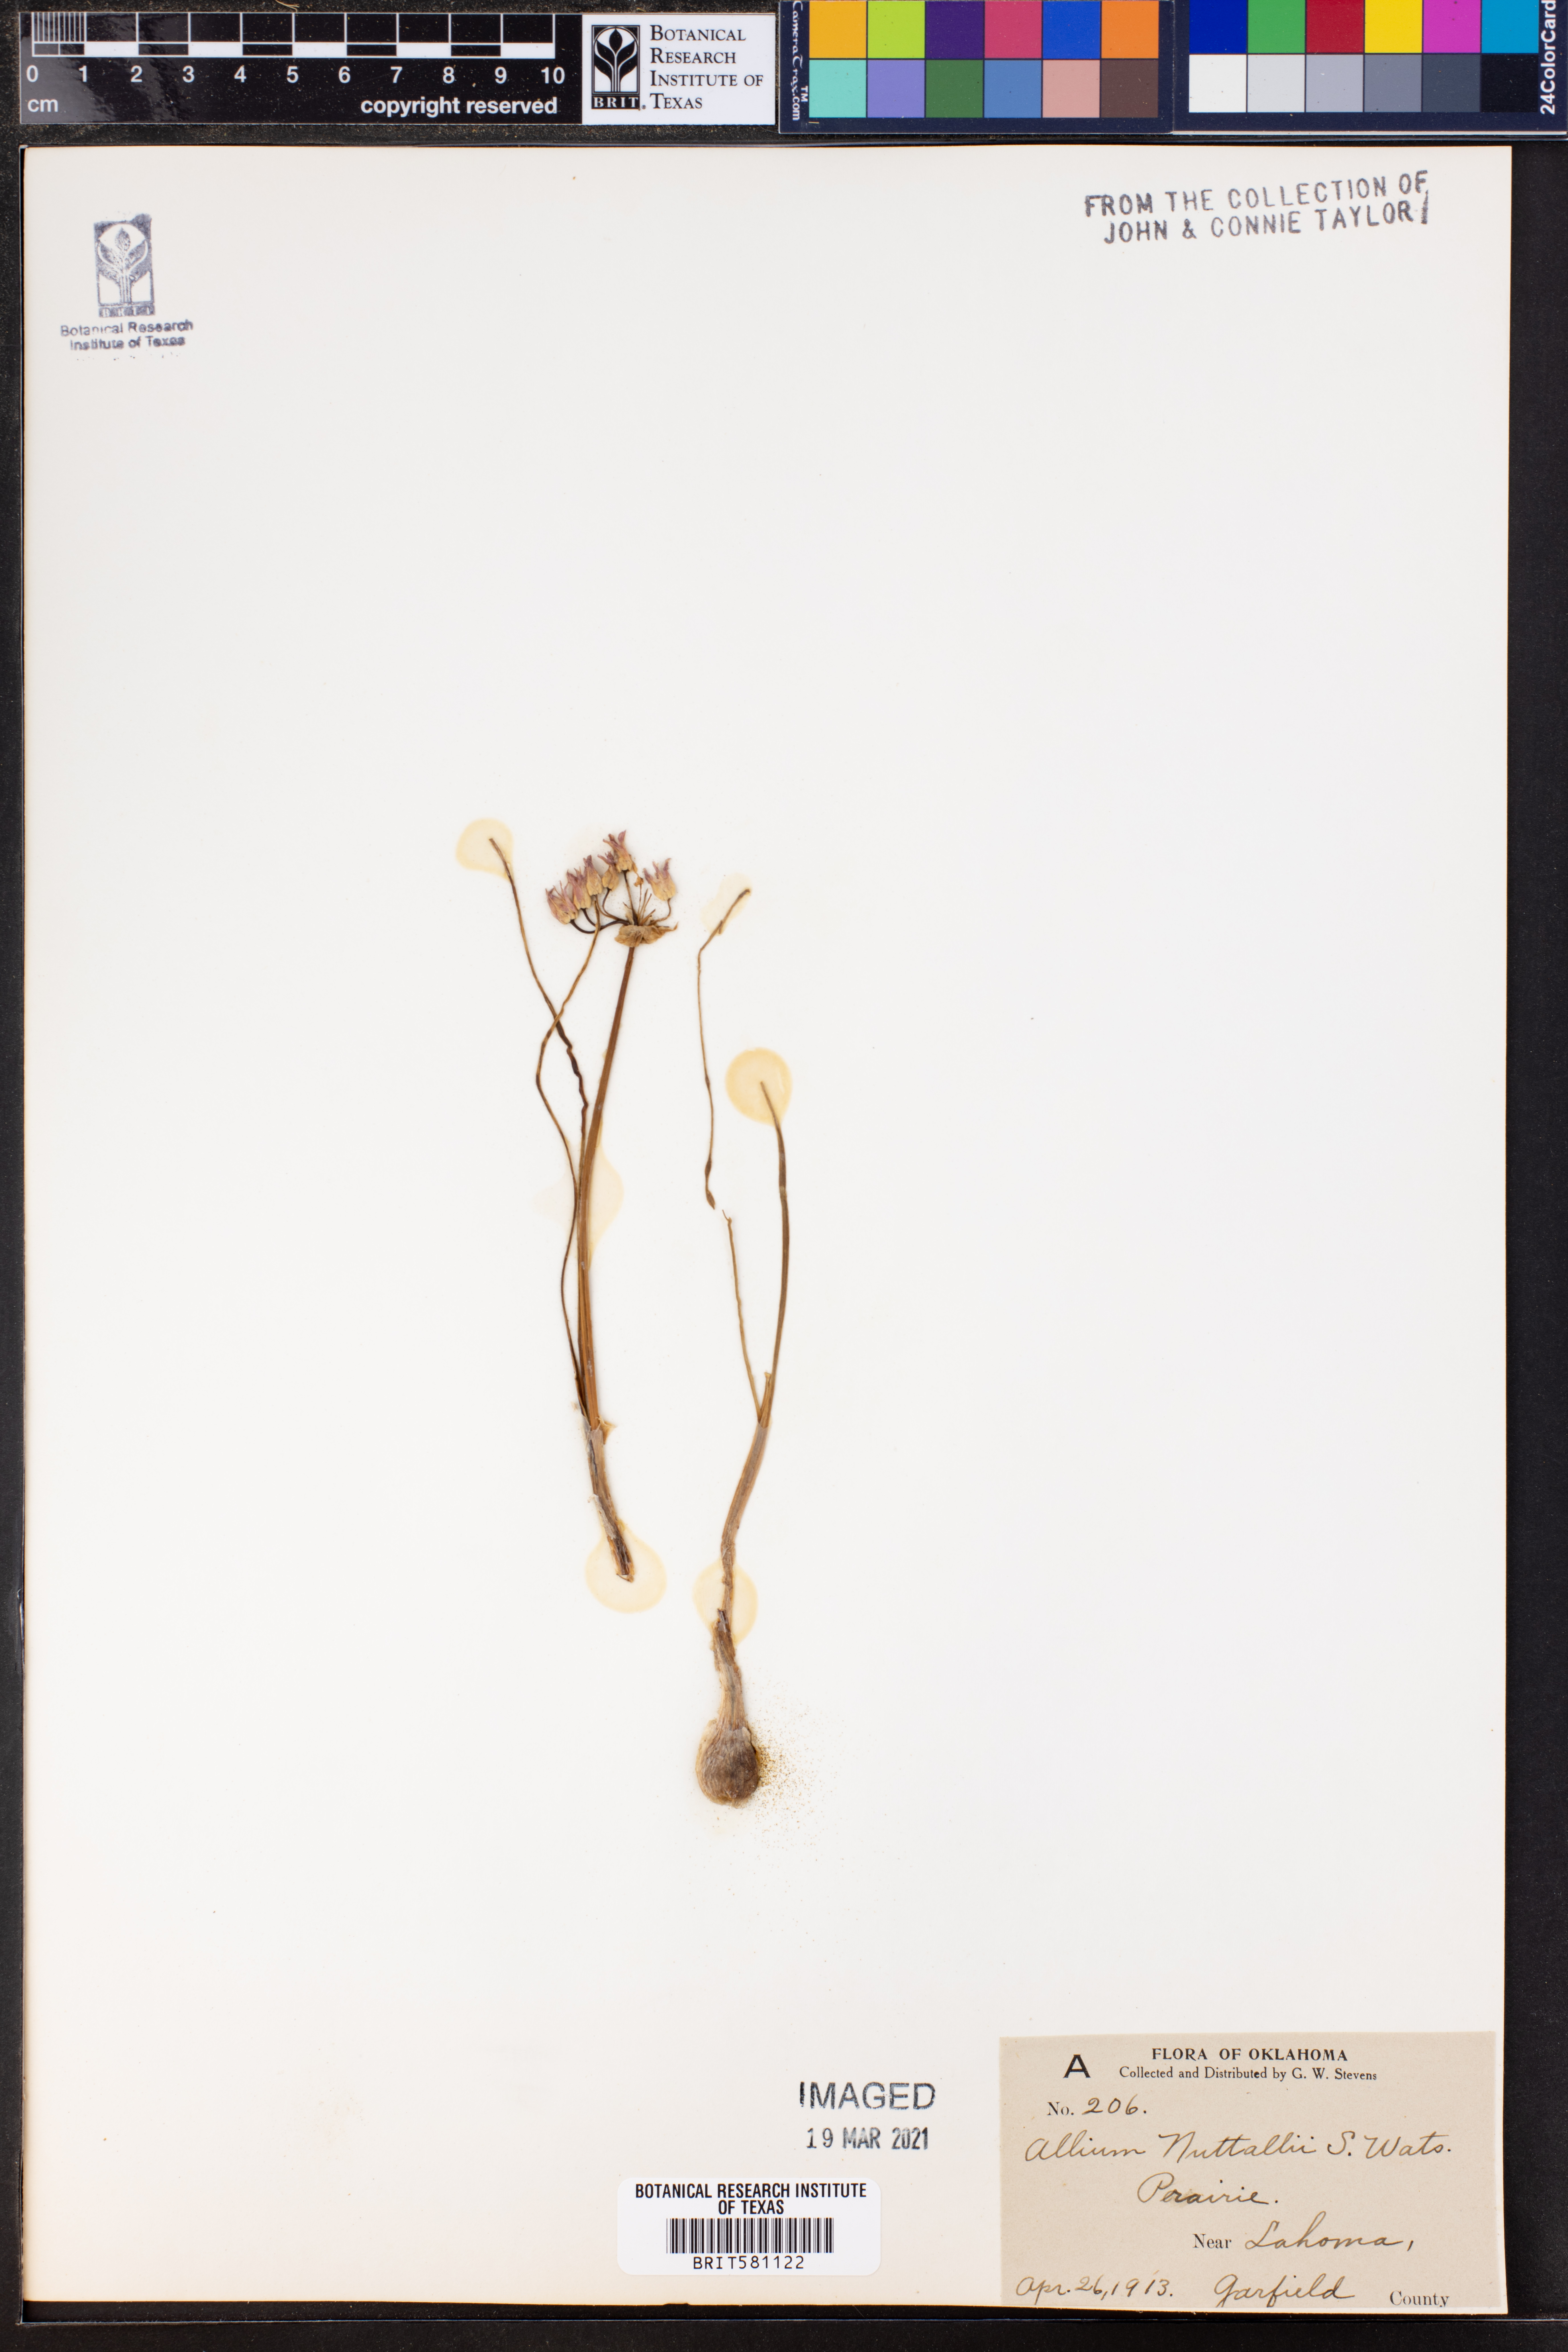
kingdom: Plantae
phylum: Tracheophyta
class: Liliopsida
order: Asparagales
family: Amaryllidaceae
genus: Allium
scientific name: Allium drummondii
